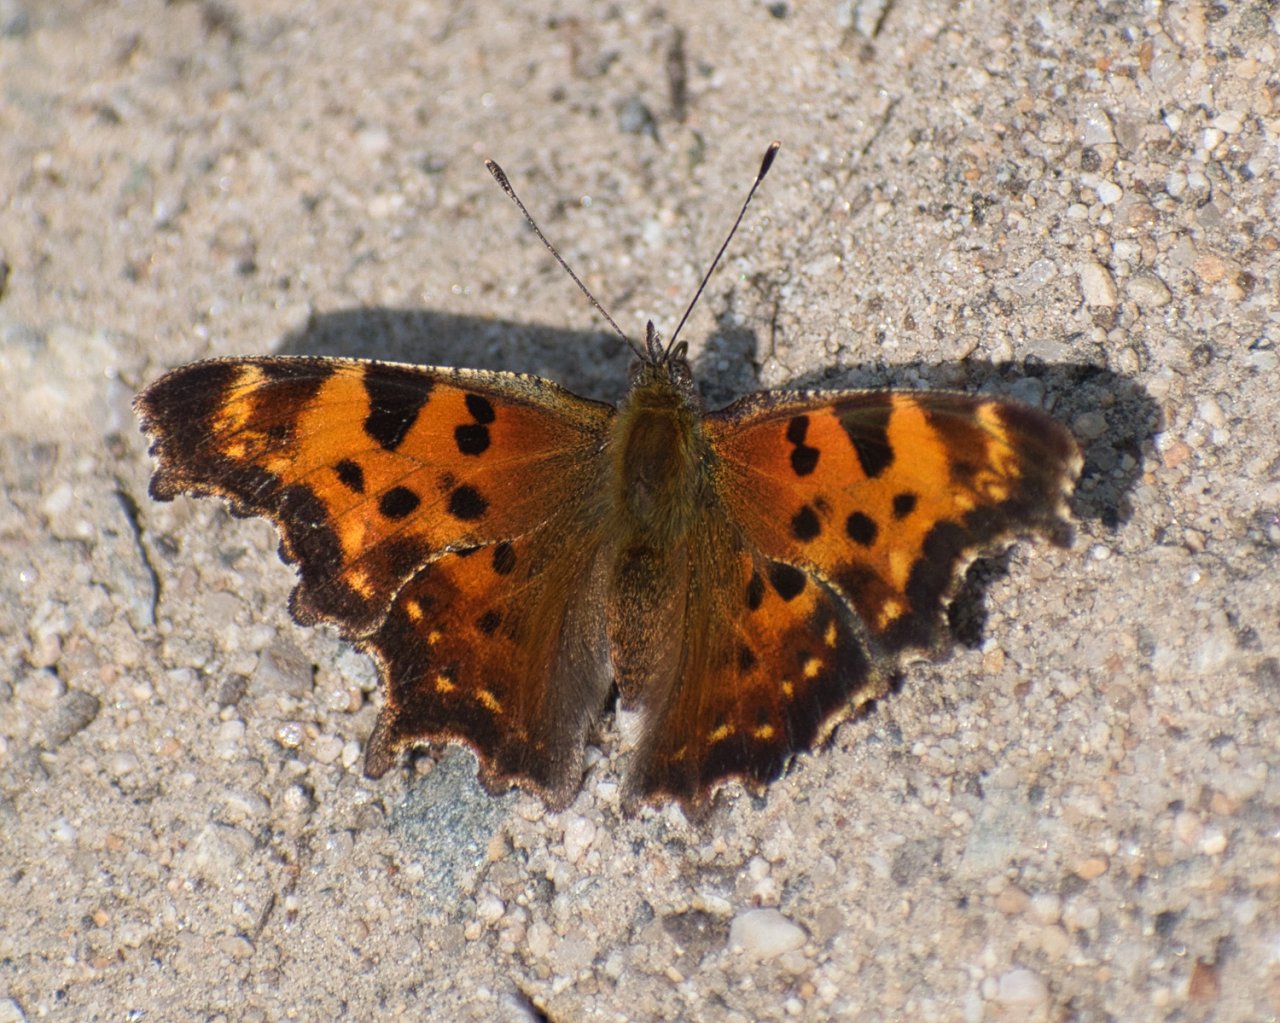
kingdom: Animalia
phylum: Arthropoda
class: Insecta
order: Lepidoptera
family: Nymphalidae
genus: Polygonia
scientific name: Polygonia faunus
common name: Green Comma
